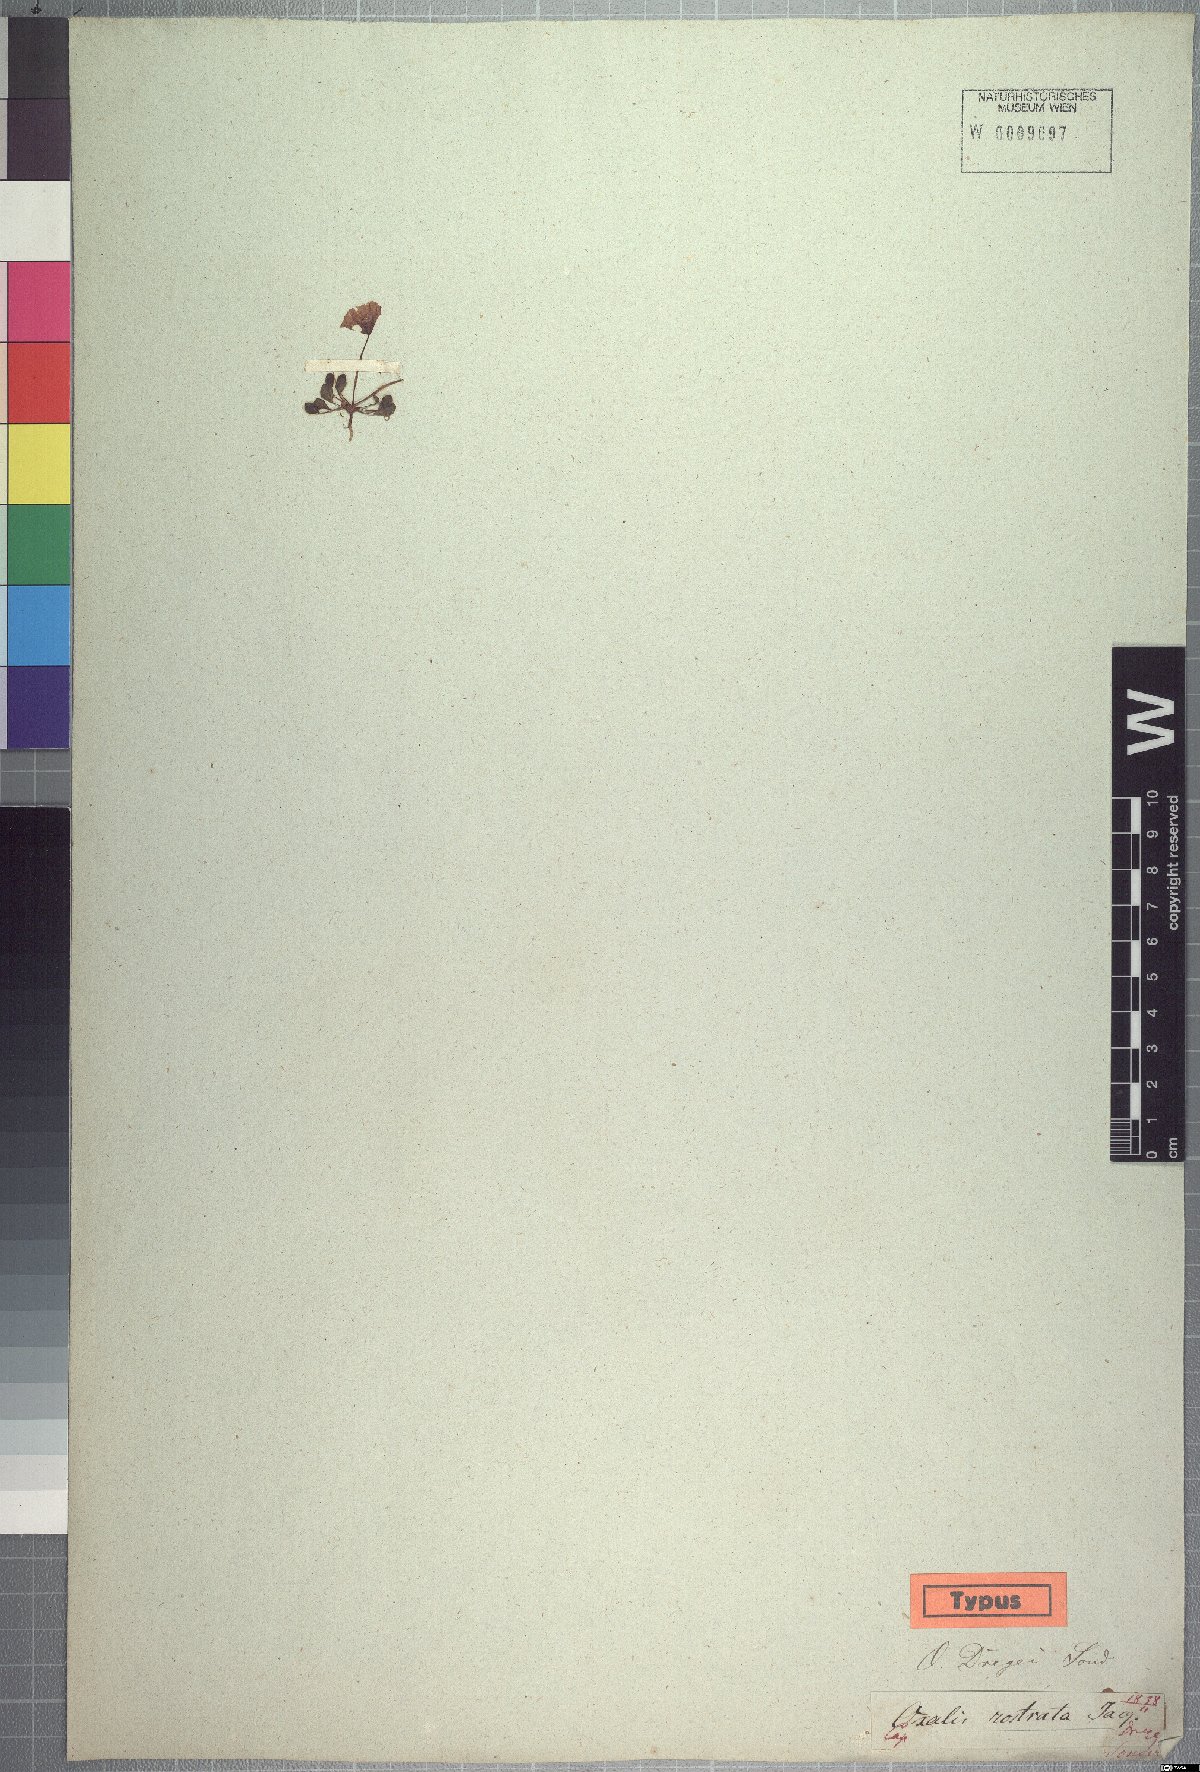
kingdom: Plantae
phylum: Tracheophyta
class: Magnoliopsida
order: Oxalidales
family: Oxalidaceae
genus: Oxalis
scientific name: Oxalis dregei
